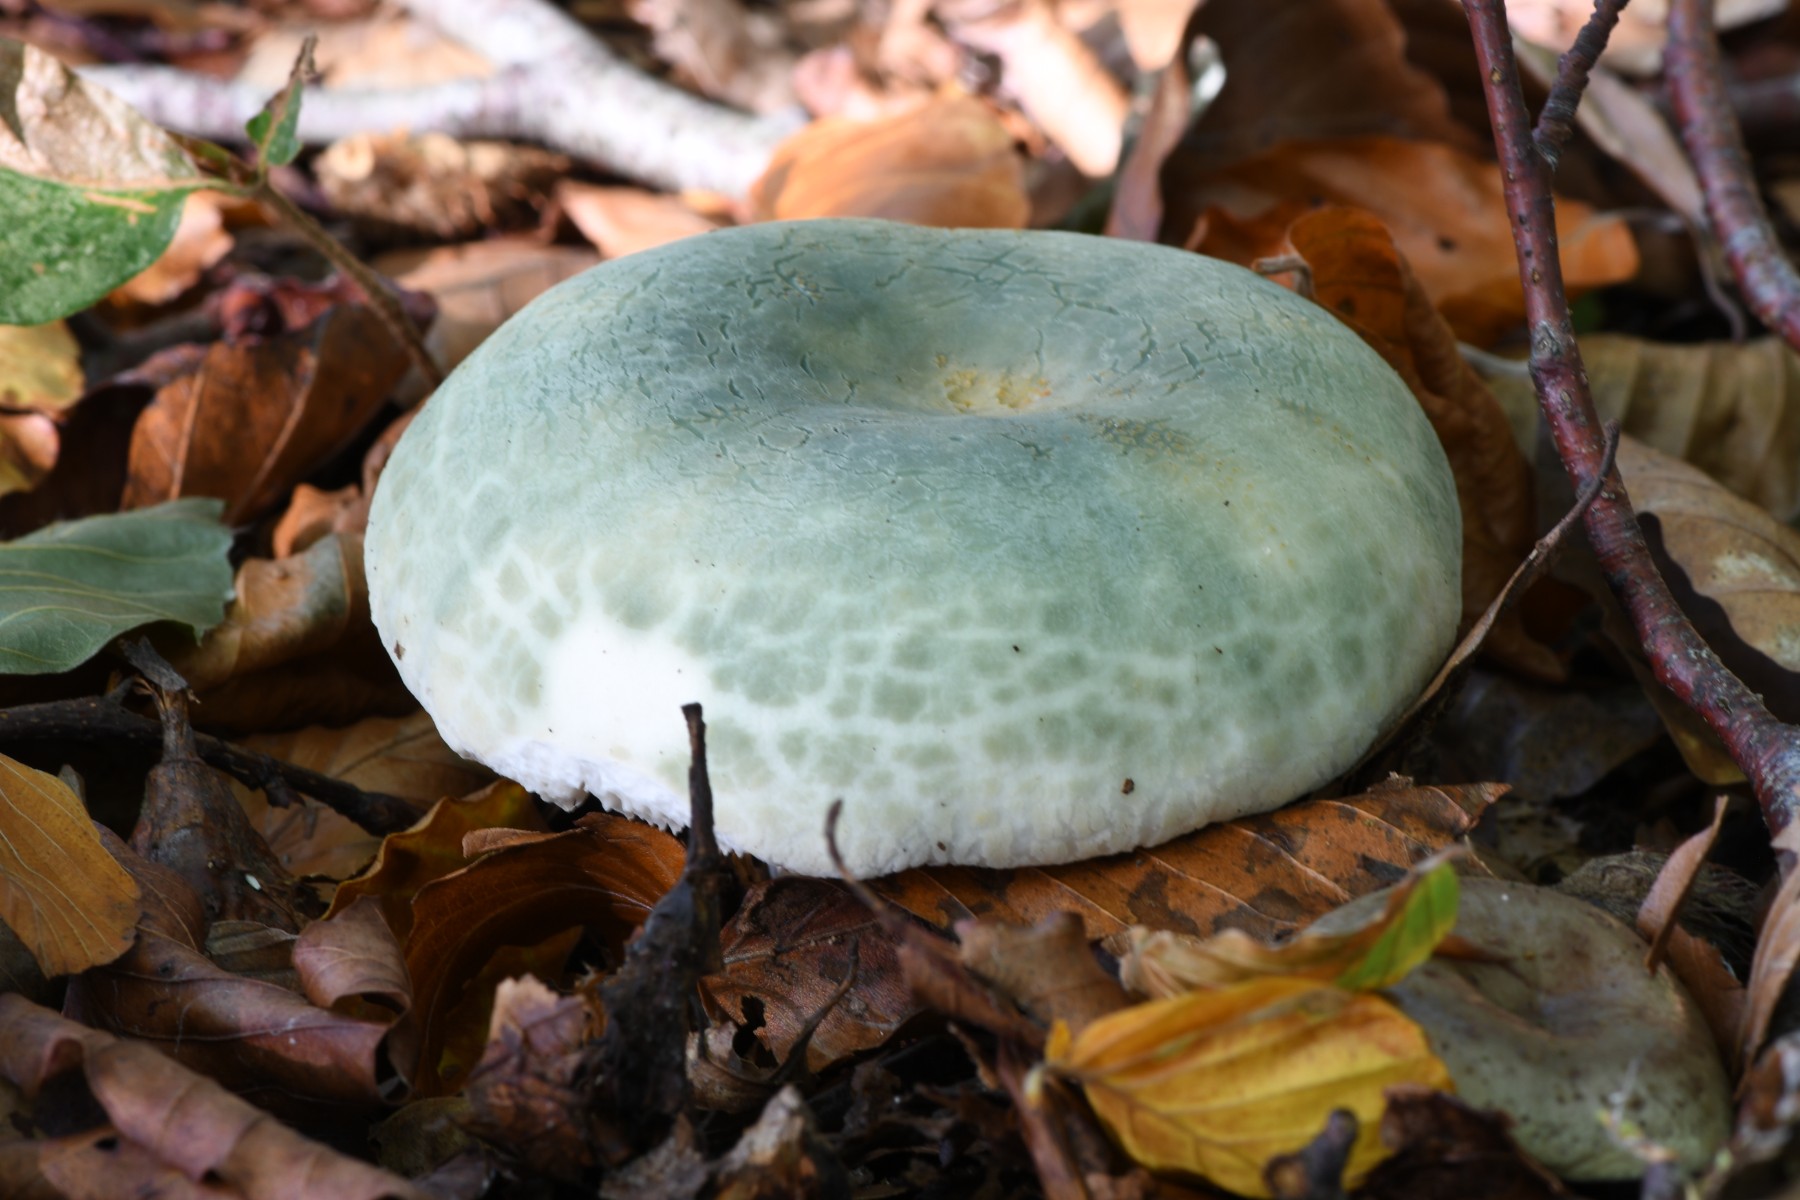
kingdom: Fungi
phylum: Basidiomycota
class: Agaricomycetes
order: Russulales
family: Russulaceae
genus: Russula
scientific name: Russula virescens
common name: spanskgrøn skørhat
